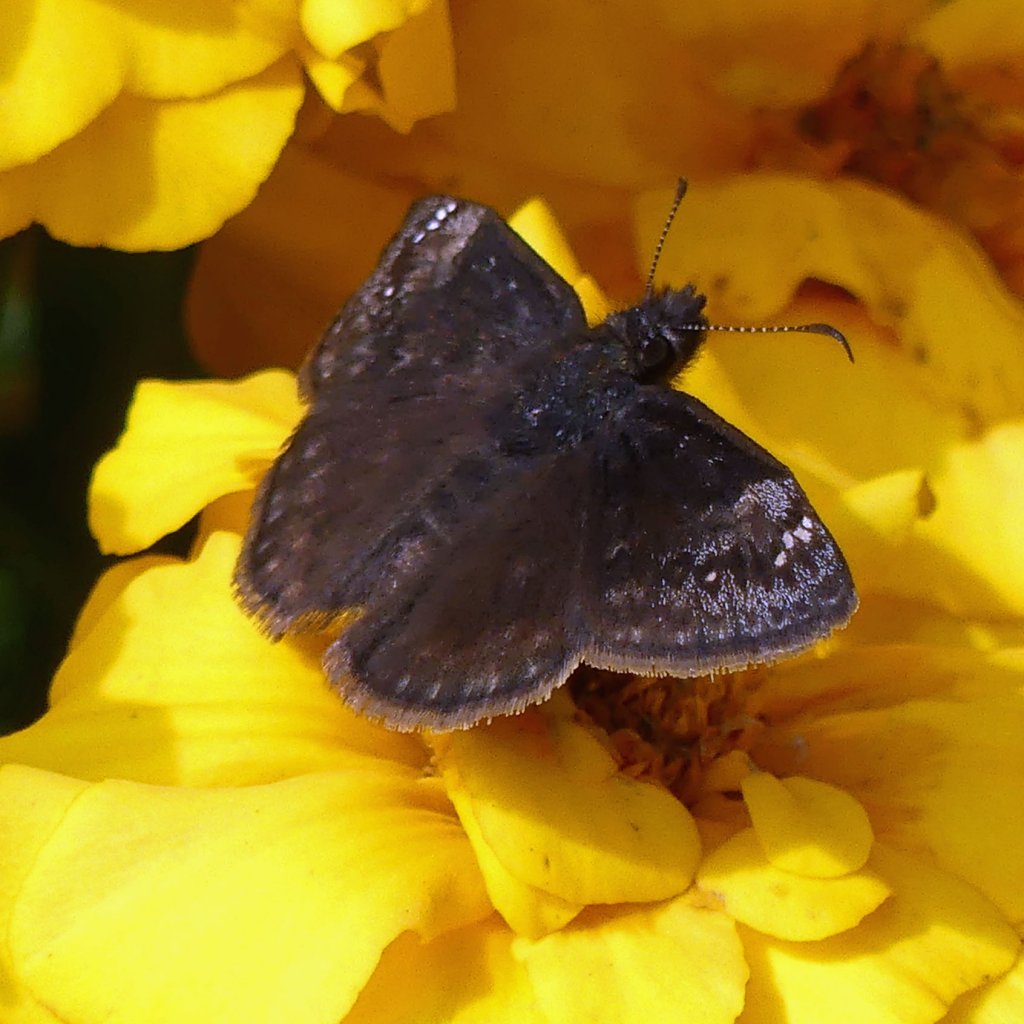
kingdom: Animalia
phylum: Arthropoda
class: Insecta
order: Lepidoptera
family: Hesperiidae
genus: Gesta
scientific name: Gesta
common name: Wild Indigo Duskywing
